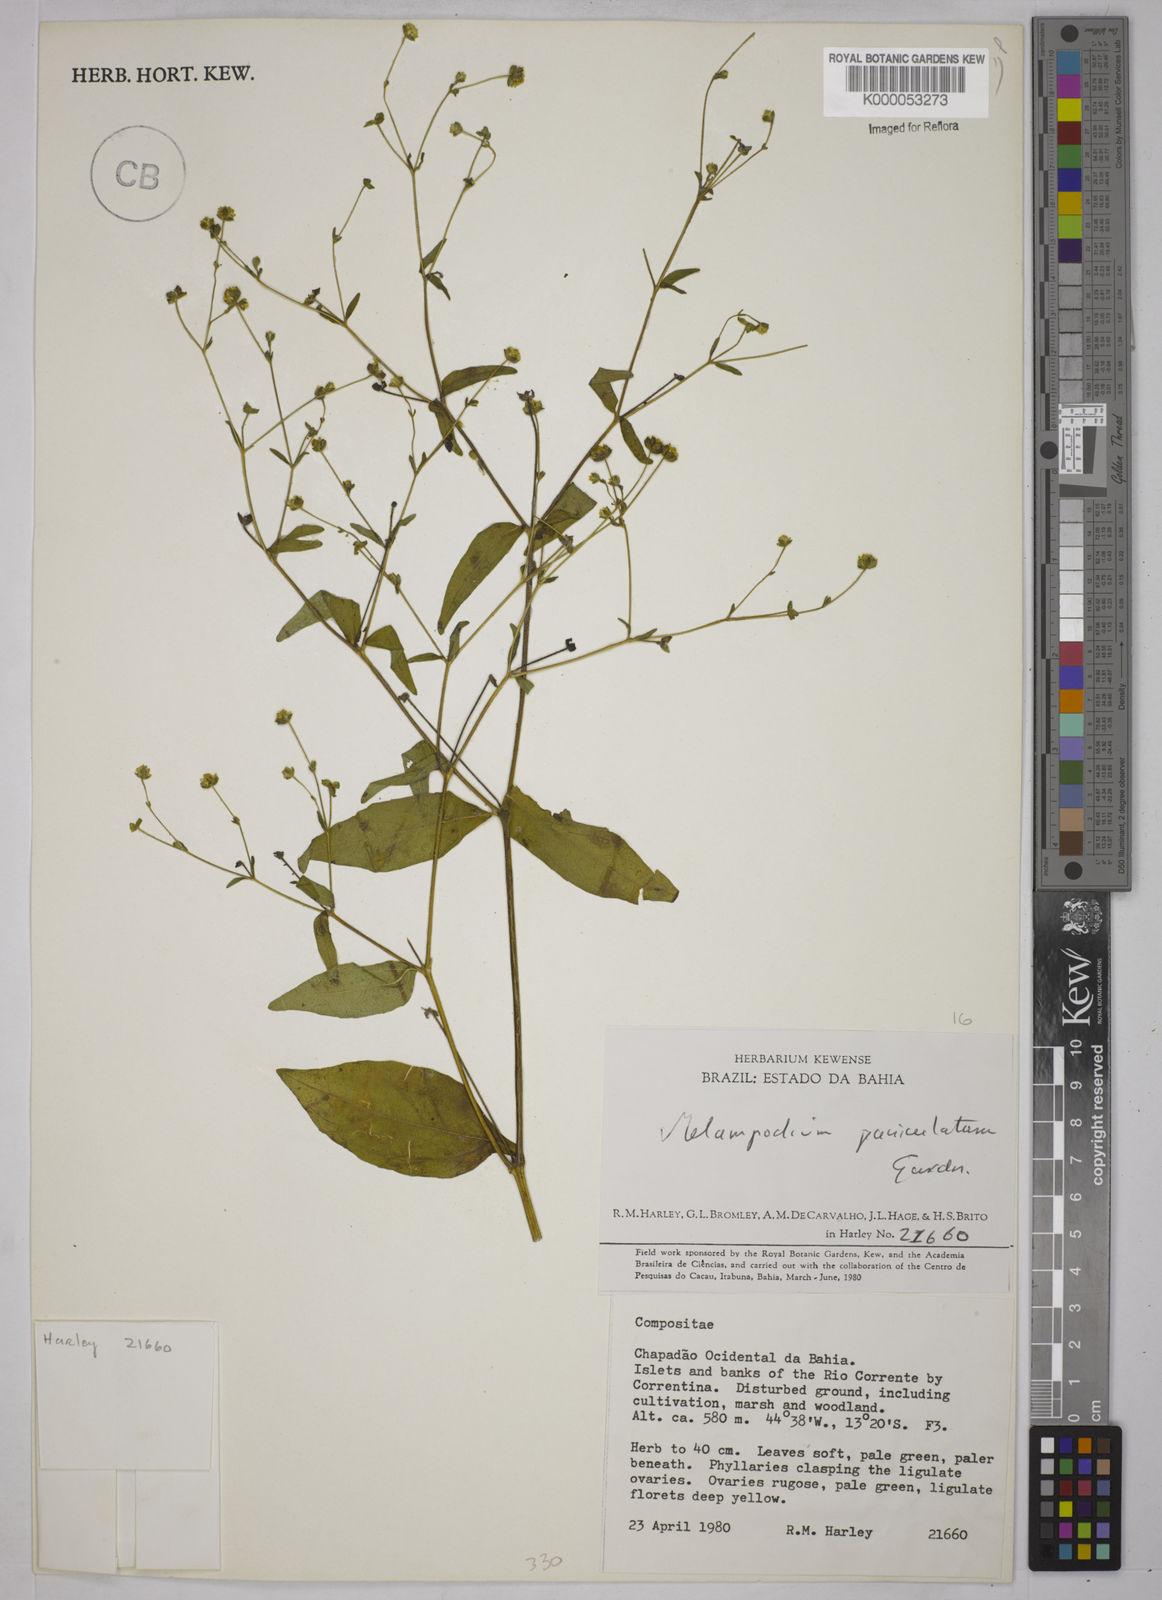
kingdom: Plantae
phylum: Tracheophyta
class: Magnoliopsida
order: Asterales
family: Asteraceae
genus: Melampodium
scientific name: Melampodium paniculatum
